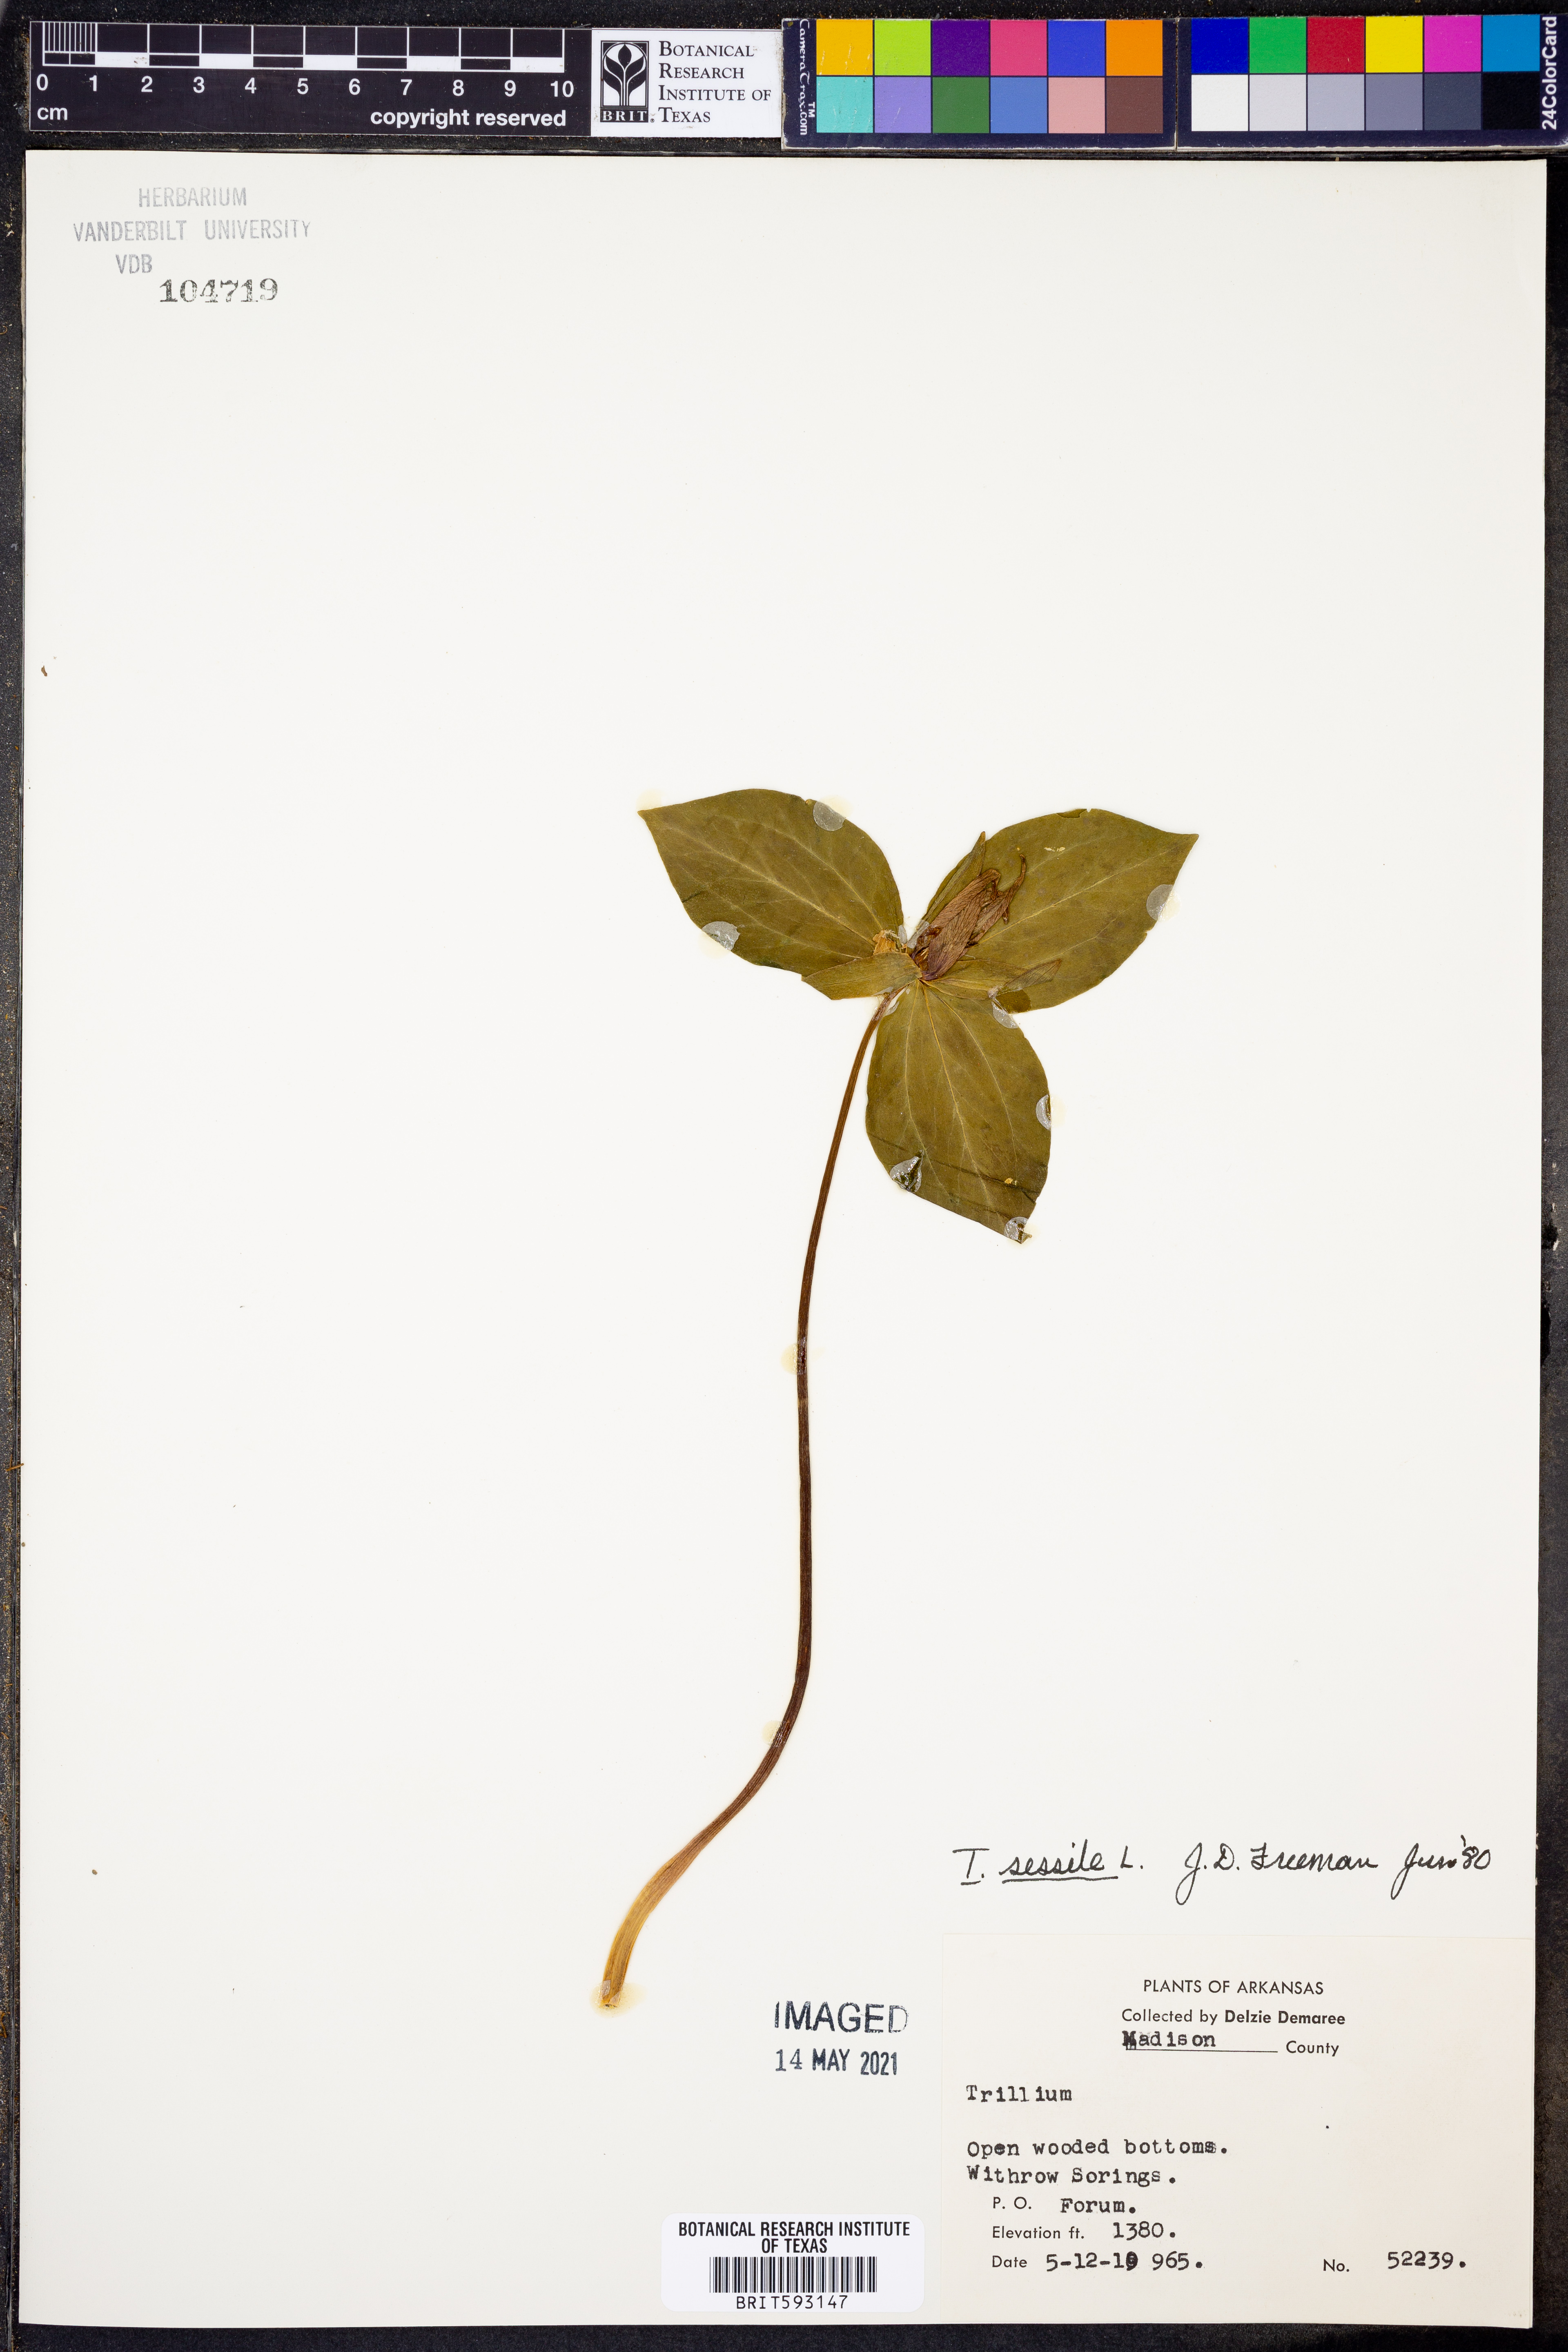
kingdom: Plantae
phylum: Tracheophyta
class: Liliopsida
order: Liliales
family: Melanthiaceae
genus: Trillium
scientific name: Trillium sessile
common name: Sessile trillium
